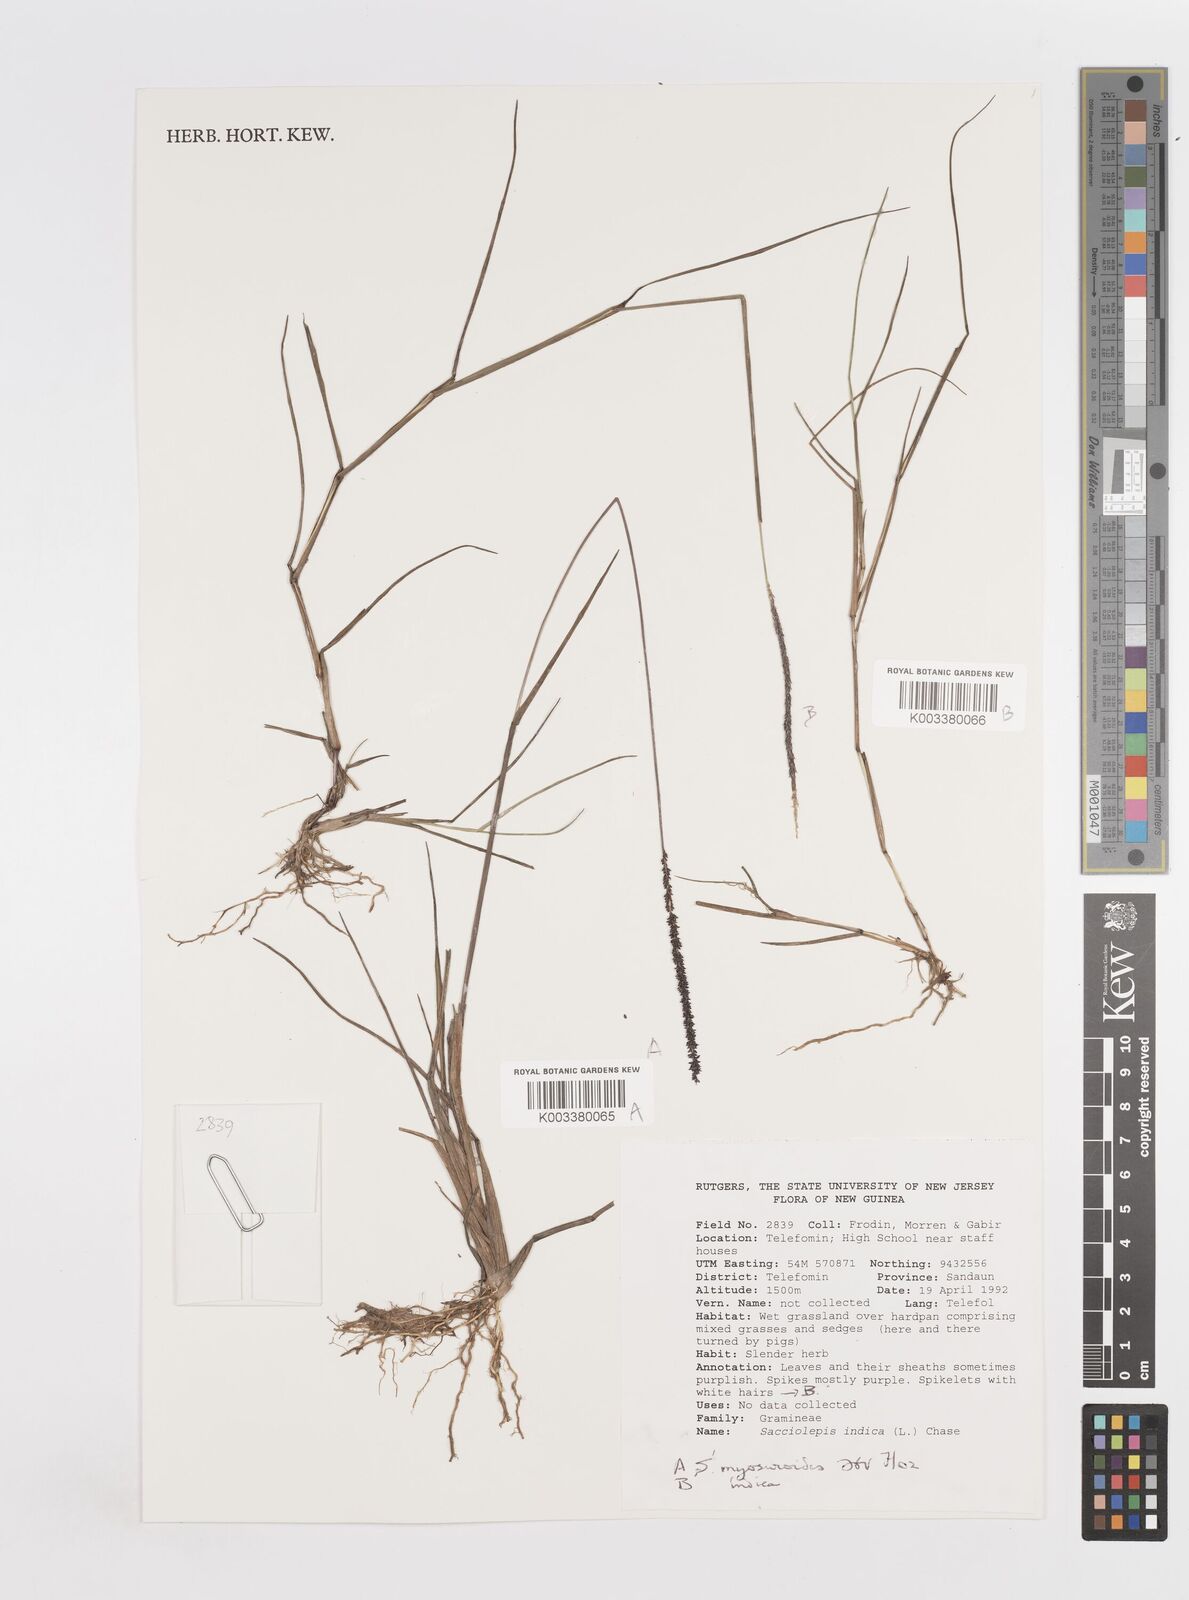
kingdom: Plantae
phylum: Tracheophyta
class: Liliopsida
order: Poales
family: Poaceae
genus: Sacciolepis
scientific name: Sacciolepis myosuroides
